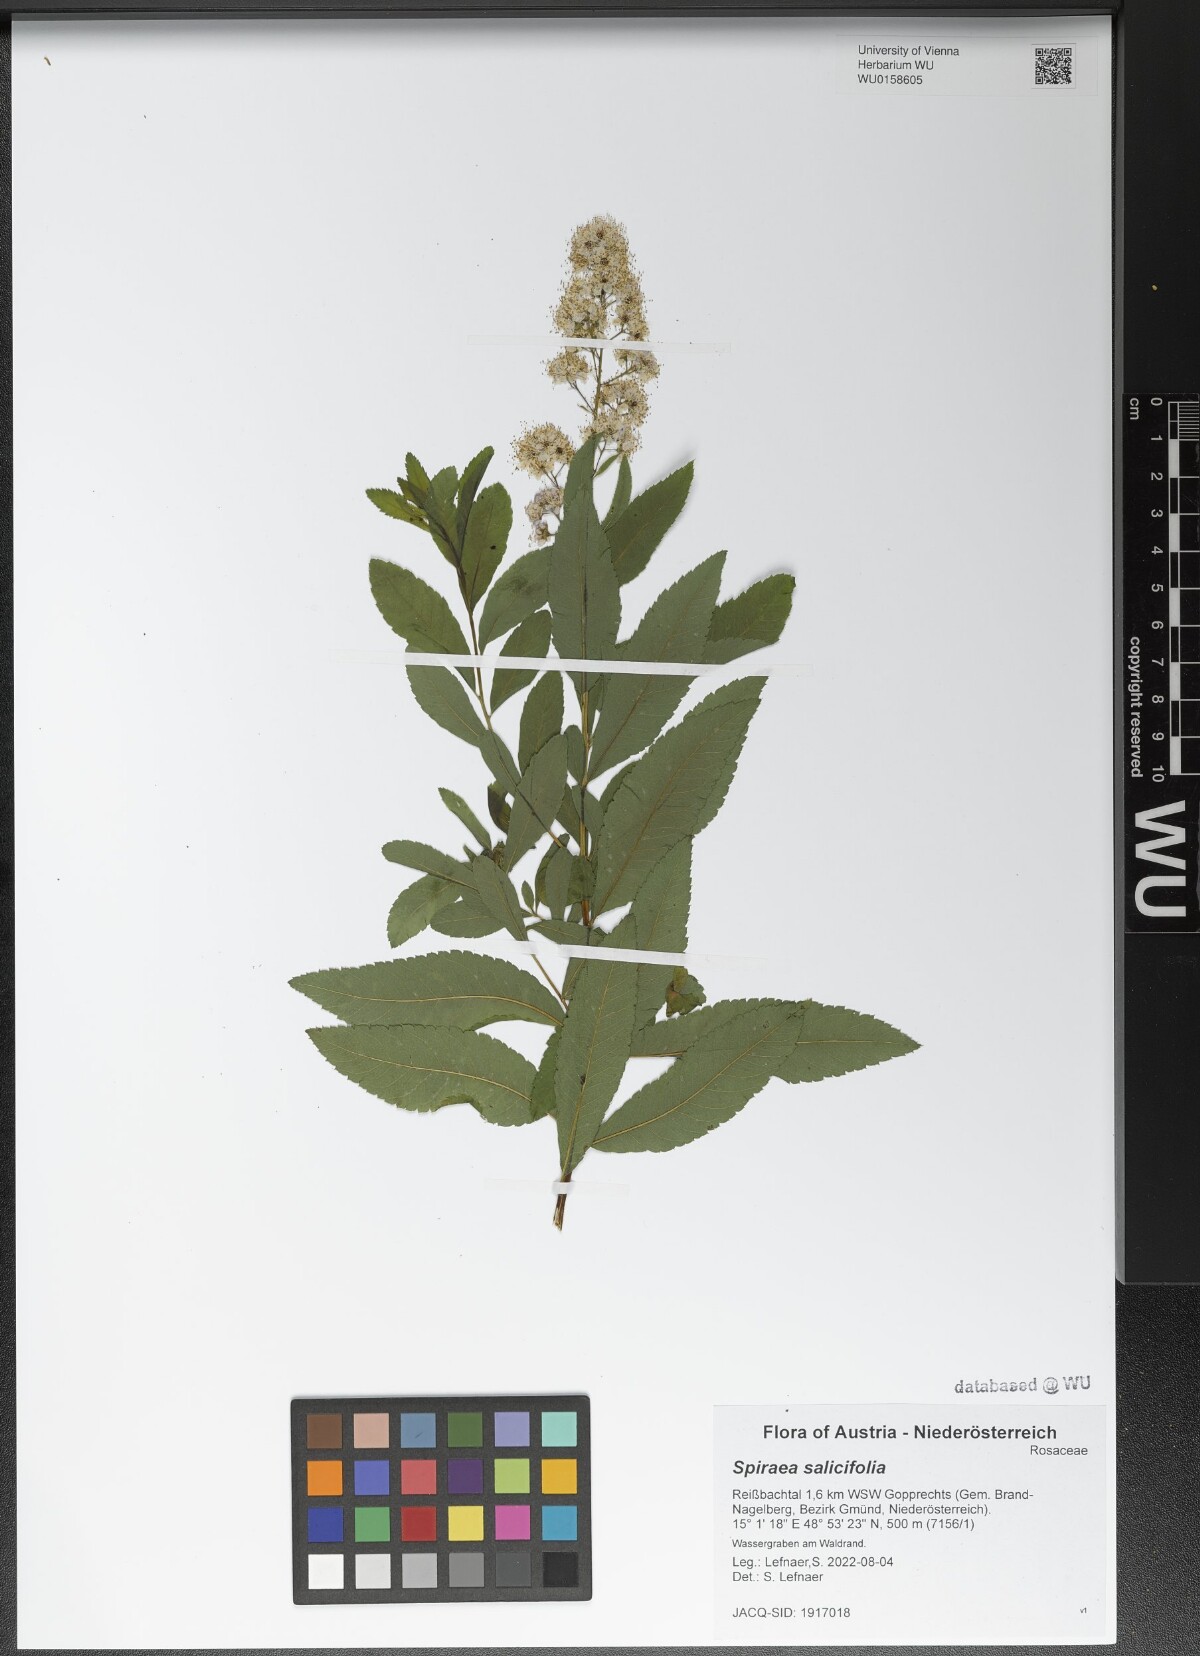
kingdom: Plantae
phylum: Tracheophyta
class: Magnoliopsida
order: Rosales
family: Rosaceae
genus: Spiraea
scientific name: Spiraea salicifolia
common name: Bridewort
